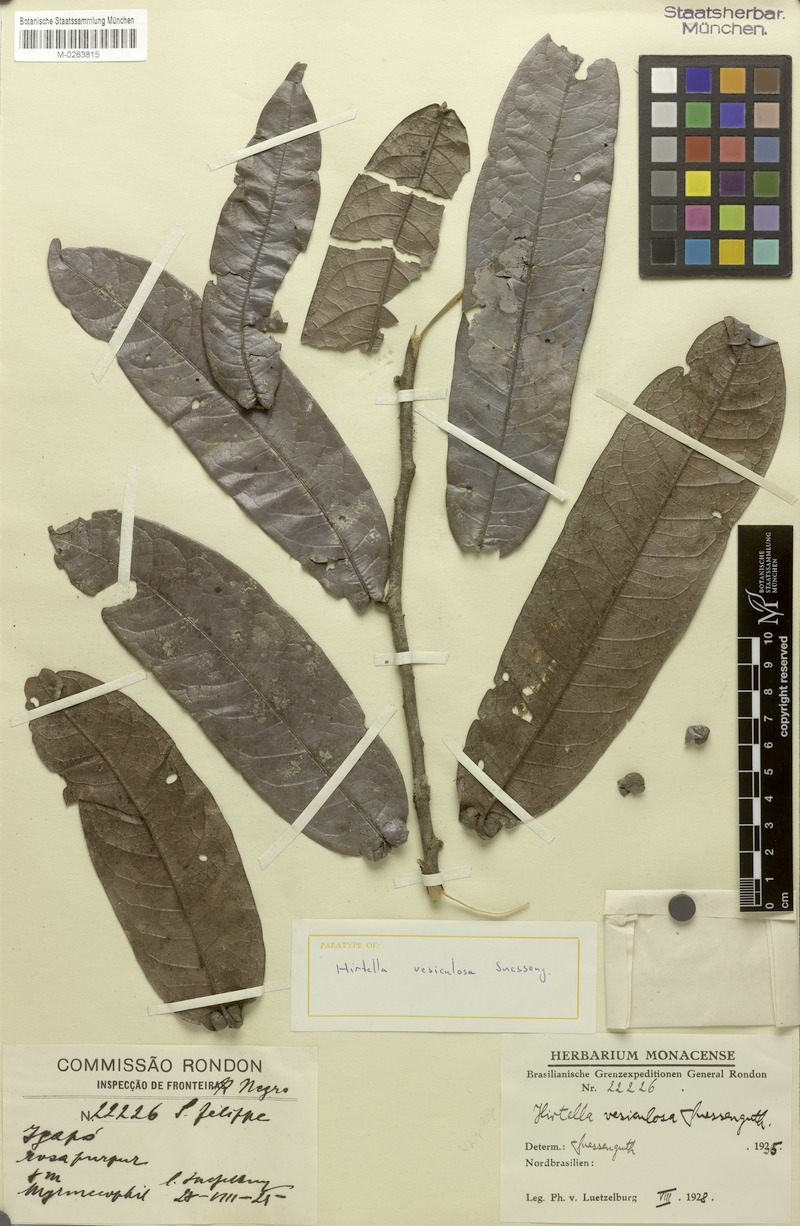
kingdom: Plantae
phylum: Tracheophyta
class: Magnoliopsida
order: Malpighiales
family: Chrysobalanaceae
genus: Hirtella
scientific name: Hirtella vesiculosa
